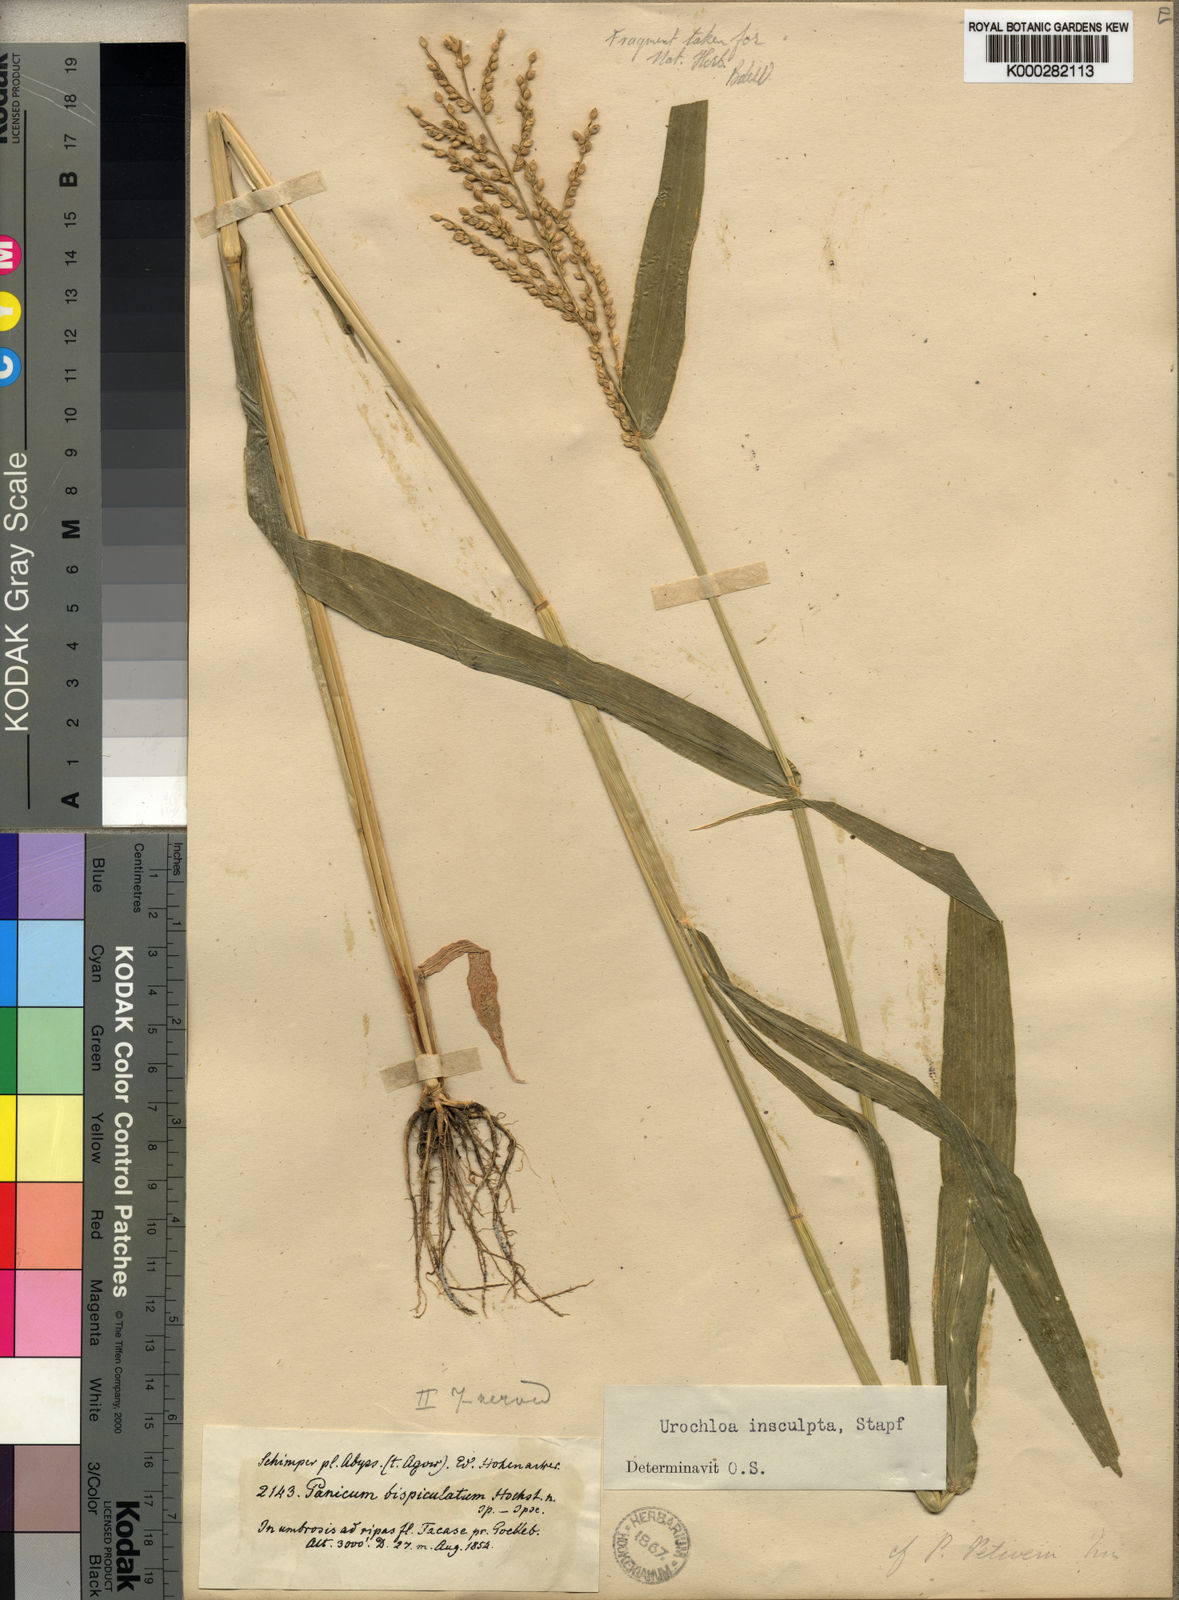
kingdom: Plantae
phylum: Tracheophyta
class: Liliopsida
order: Poales
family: Poaceae
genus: Urochloa
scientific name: Urochloa lata
